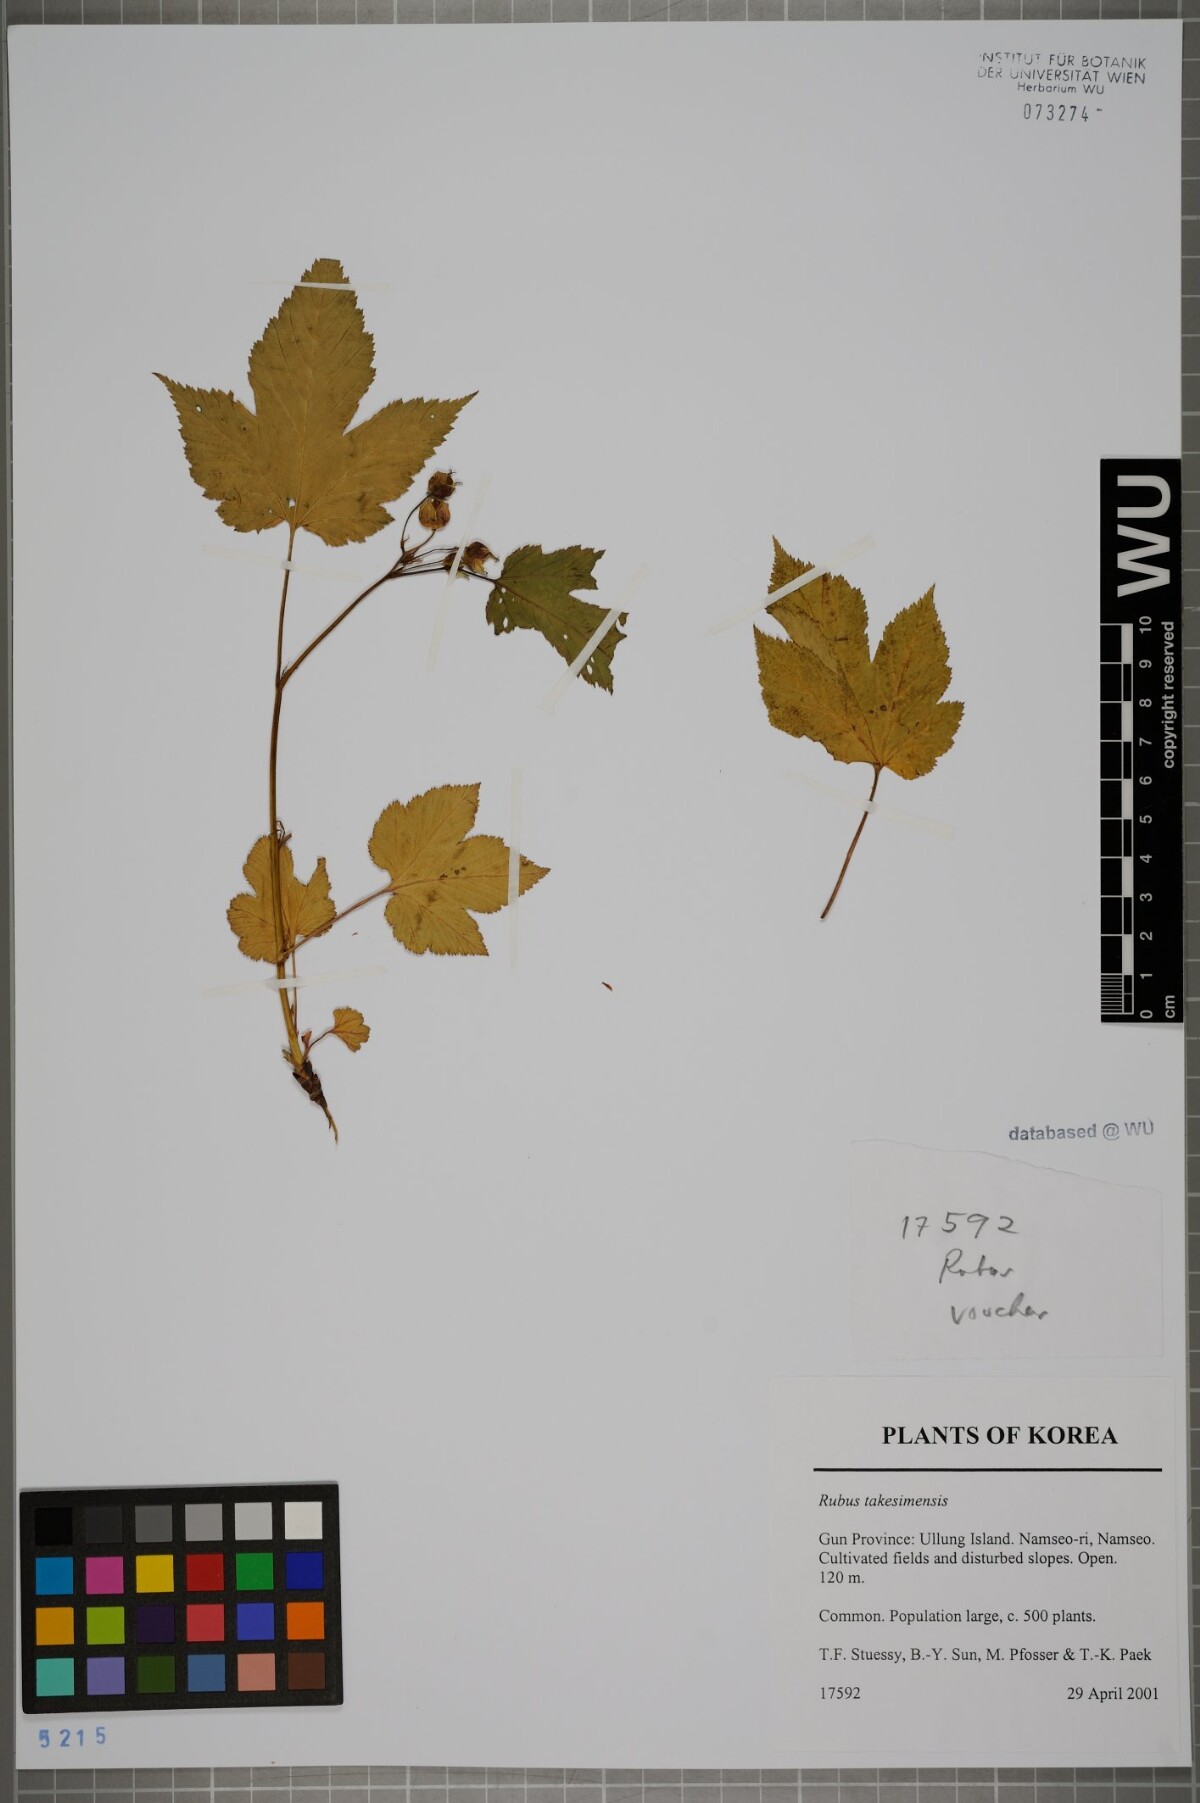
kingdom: Plantae
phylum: Tracheophyta
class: Magnoliopsida
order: Rosales
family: Rosaceae
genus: Rubus
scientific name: Rubus crataegifolius
